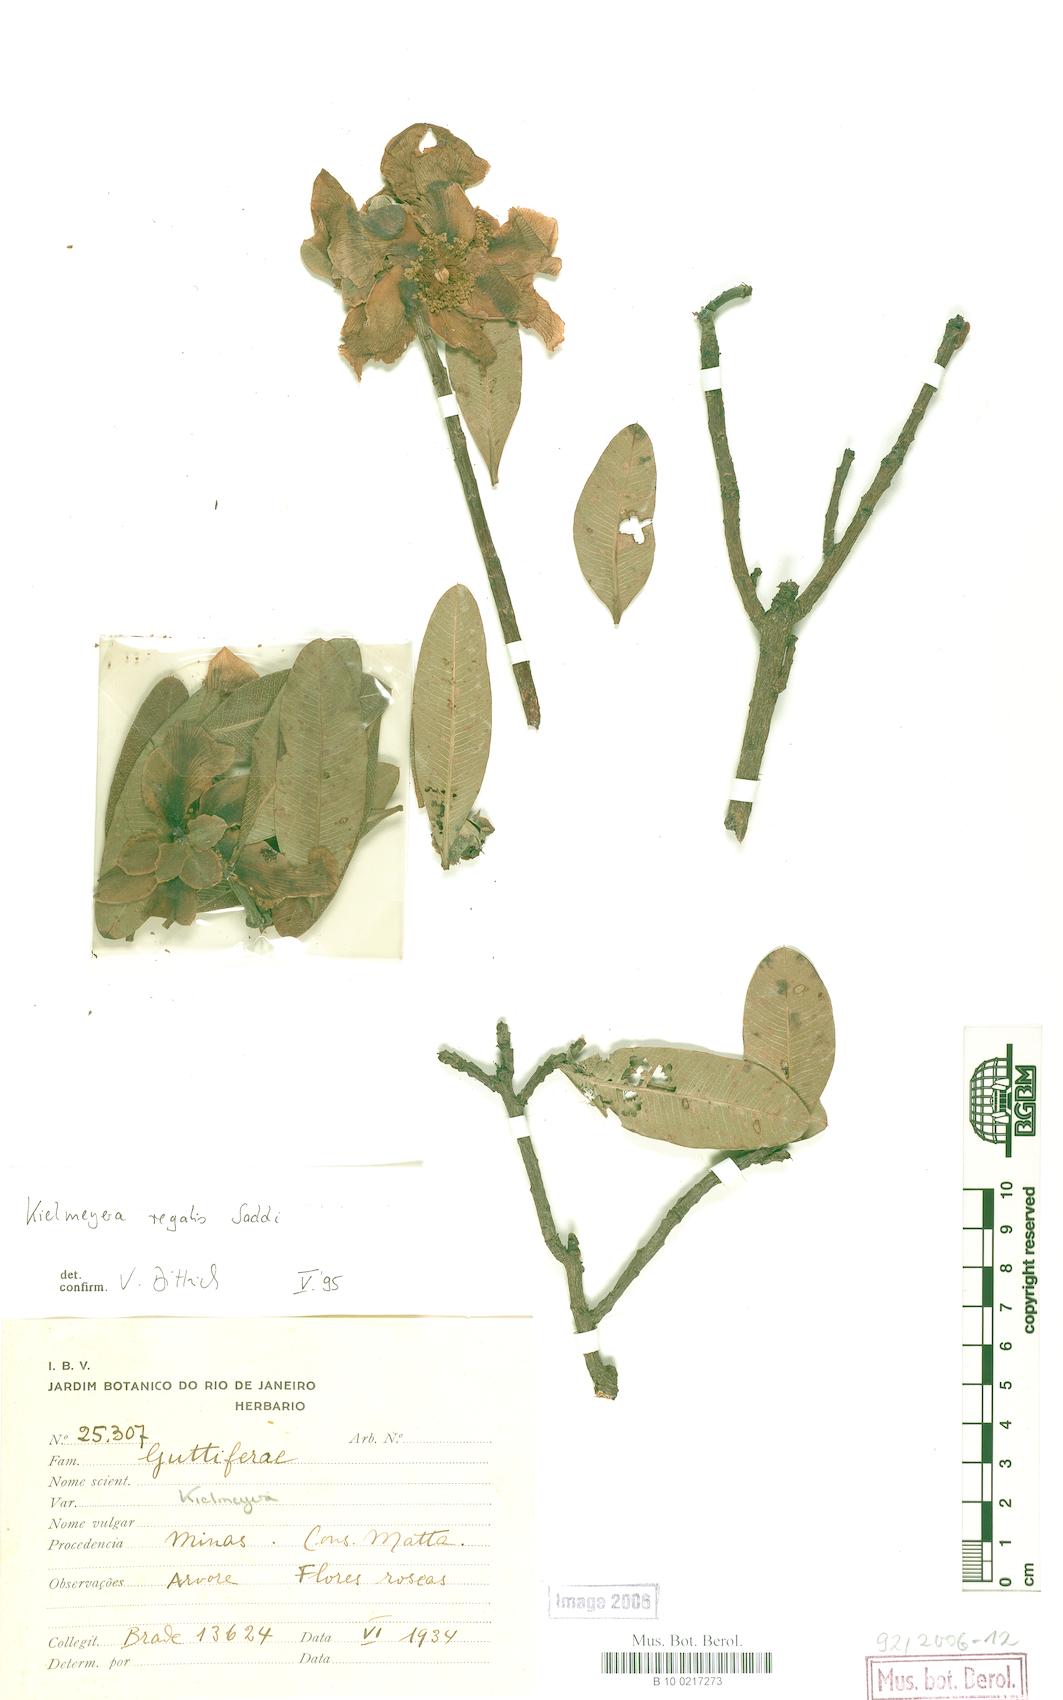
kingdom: Plantae
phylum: Tracheophyta
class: Magnoliopsida
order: Malpighiales
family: Calophyllaceae
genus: Kielmeyera
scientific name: Kielmeyera regalis
